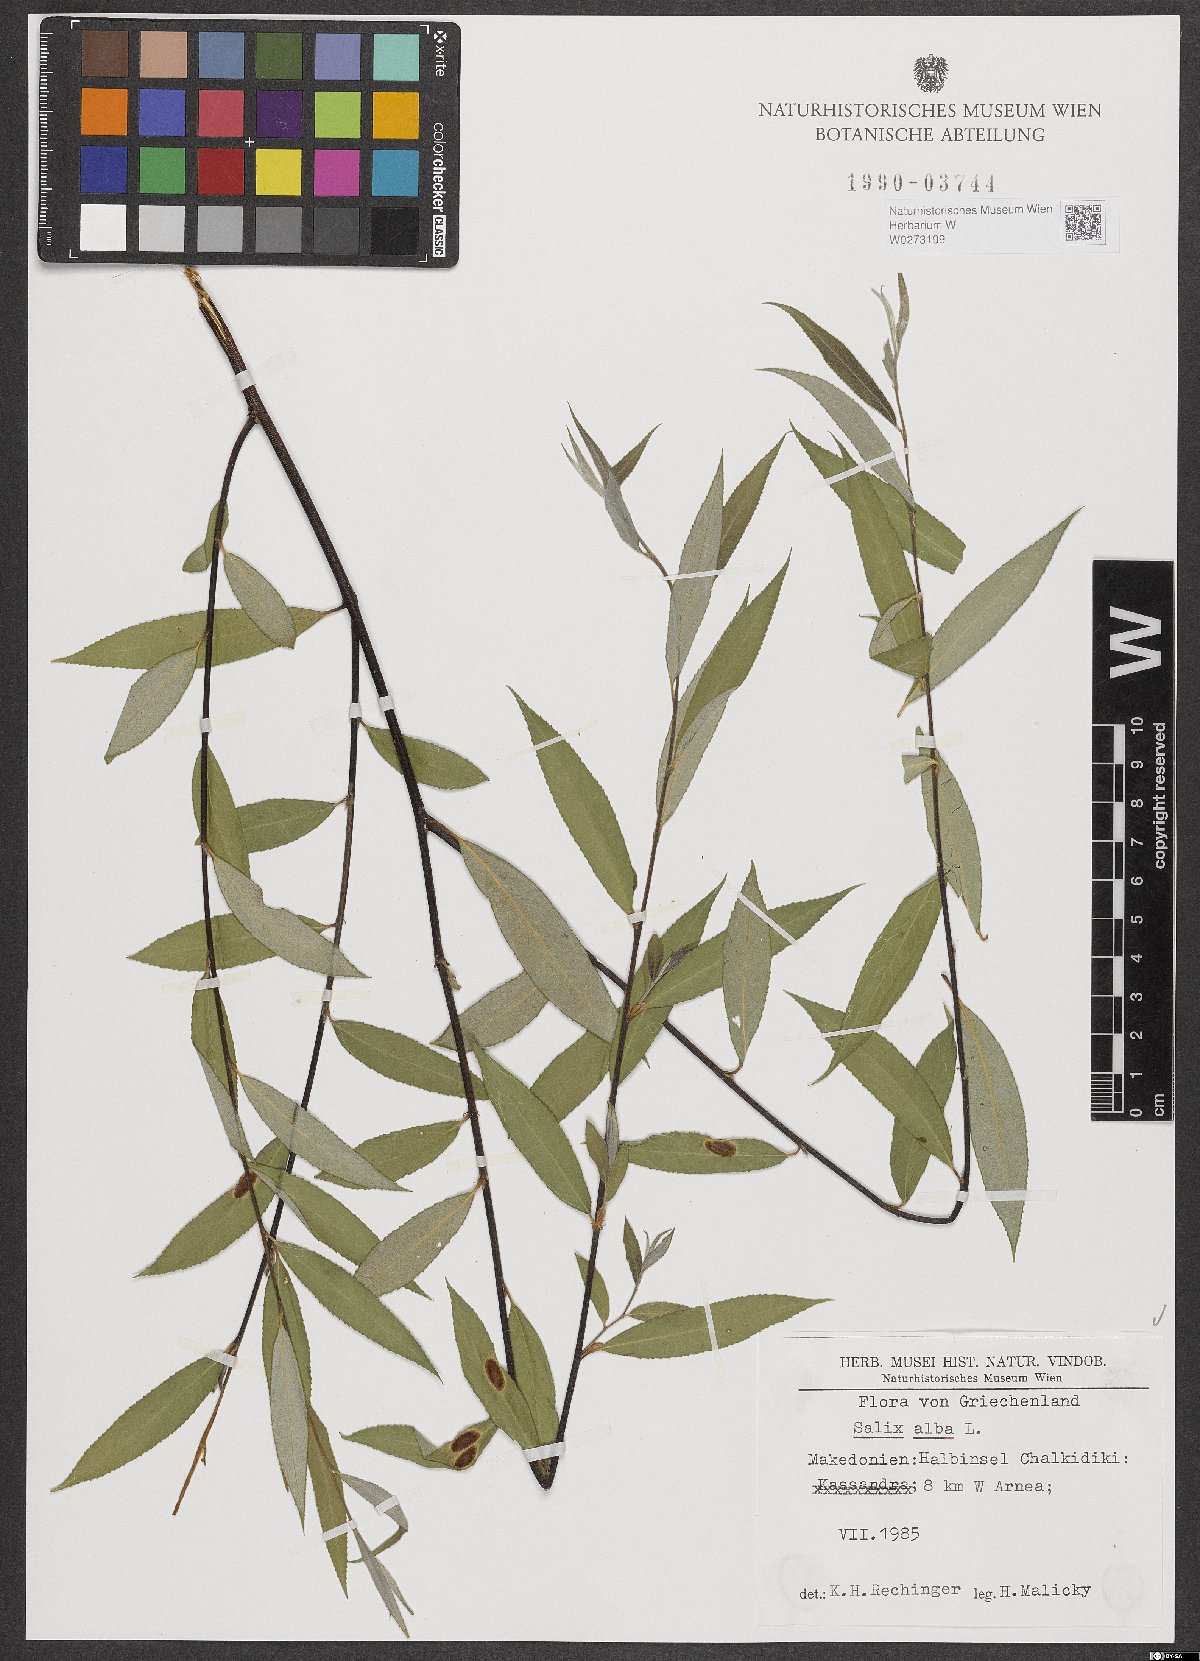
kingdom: Plantae
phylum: Tracheophyta
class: Magnoliopsida
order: Malpighiales
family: Salicaceae
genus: Salix
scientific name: Salix alba
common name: White willow
